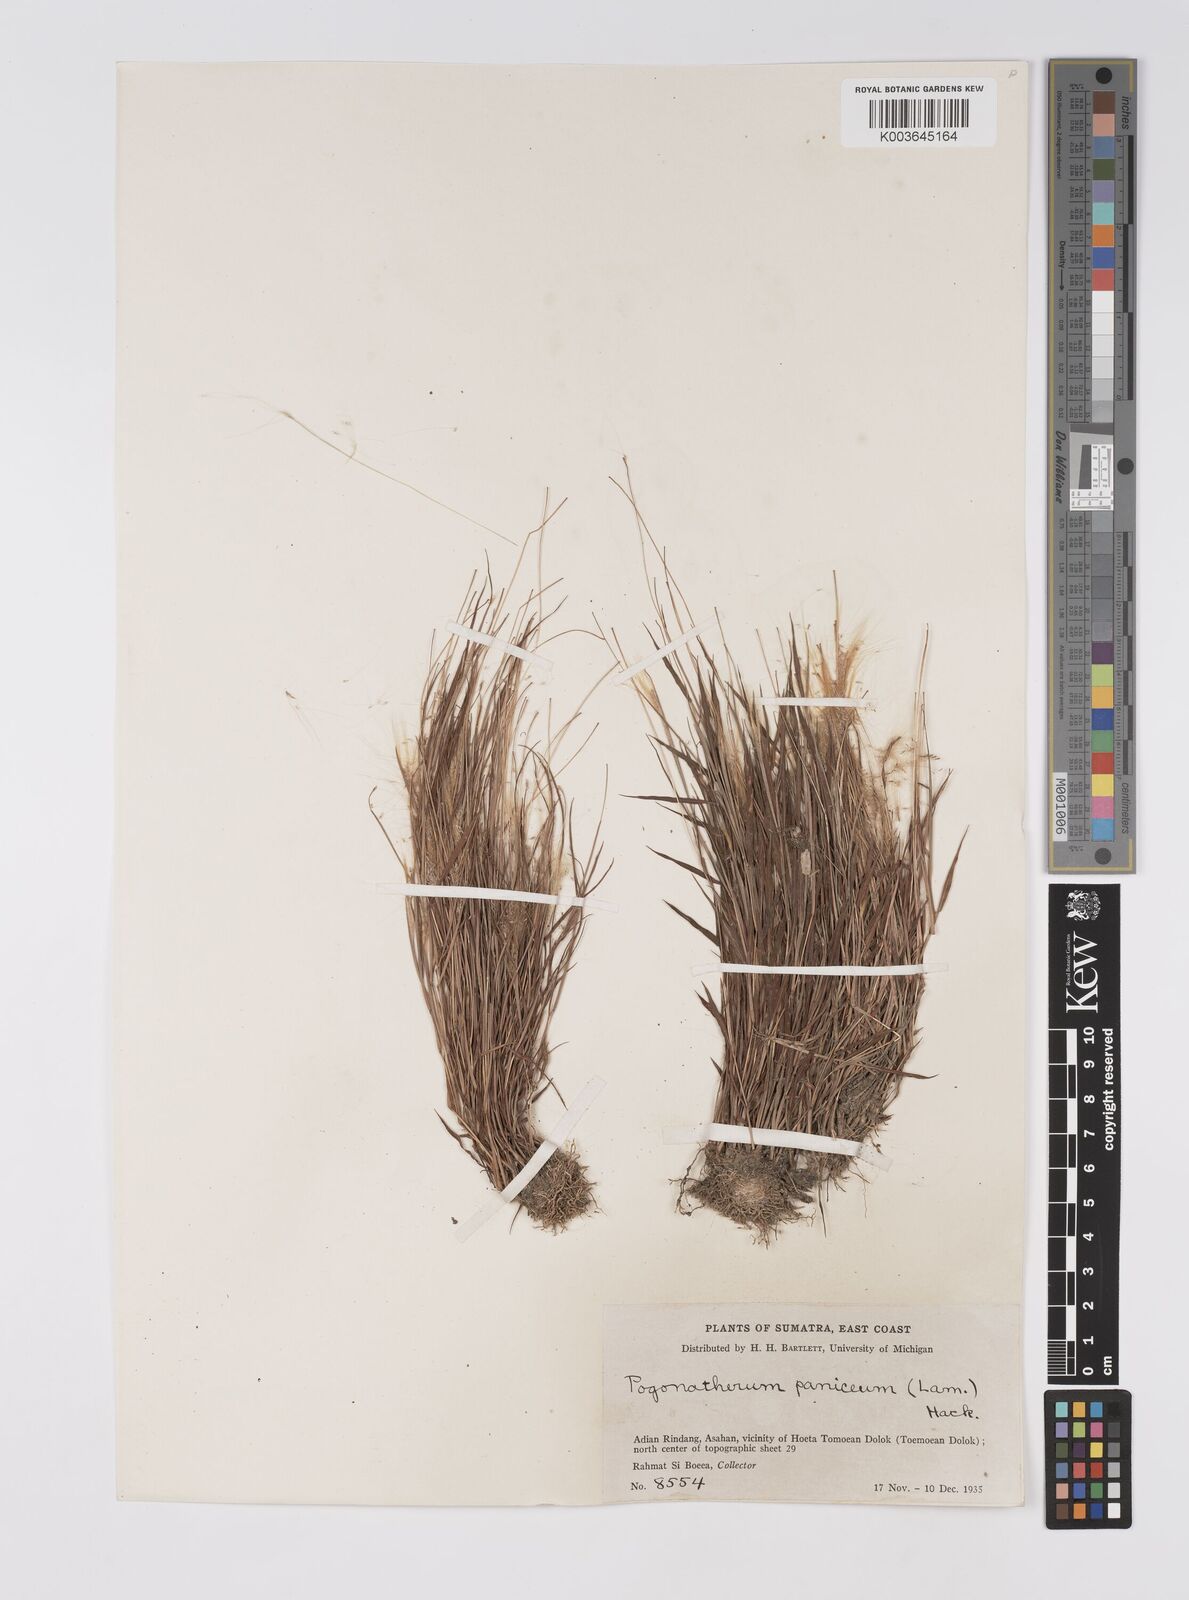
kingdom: Plantae
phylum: Tracheophyta
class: Liliopsida
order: Poales
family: Poaceae
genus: Pogonatherum
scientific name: Pogonatherum crinitum
